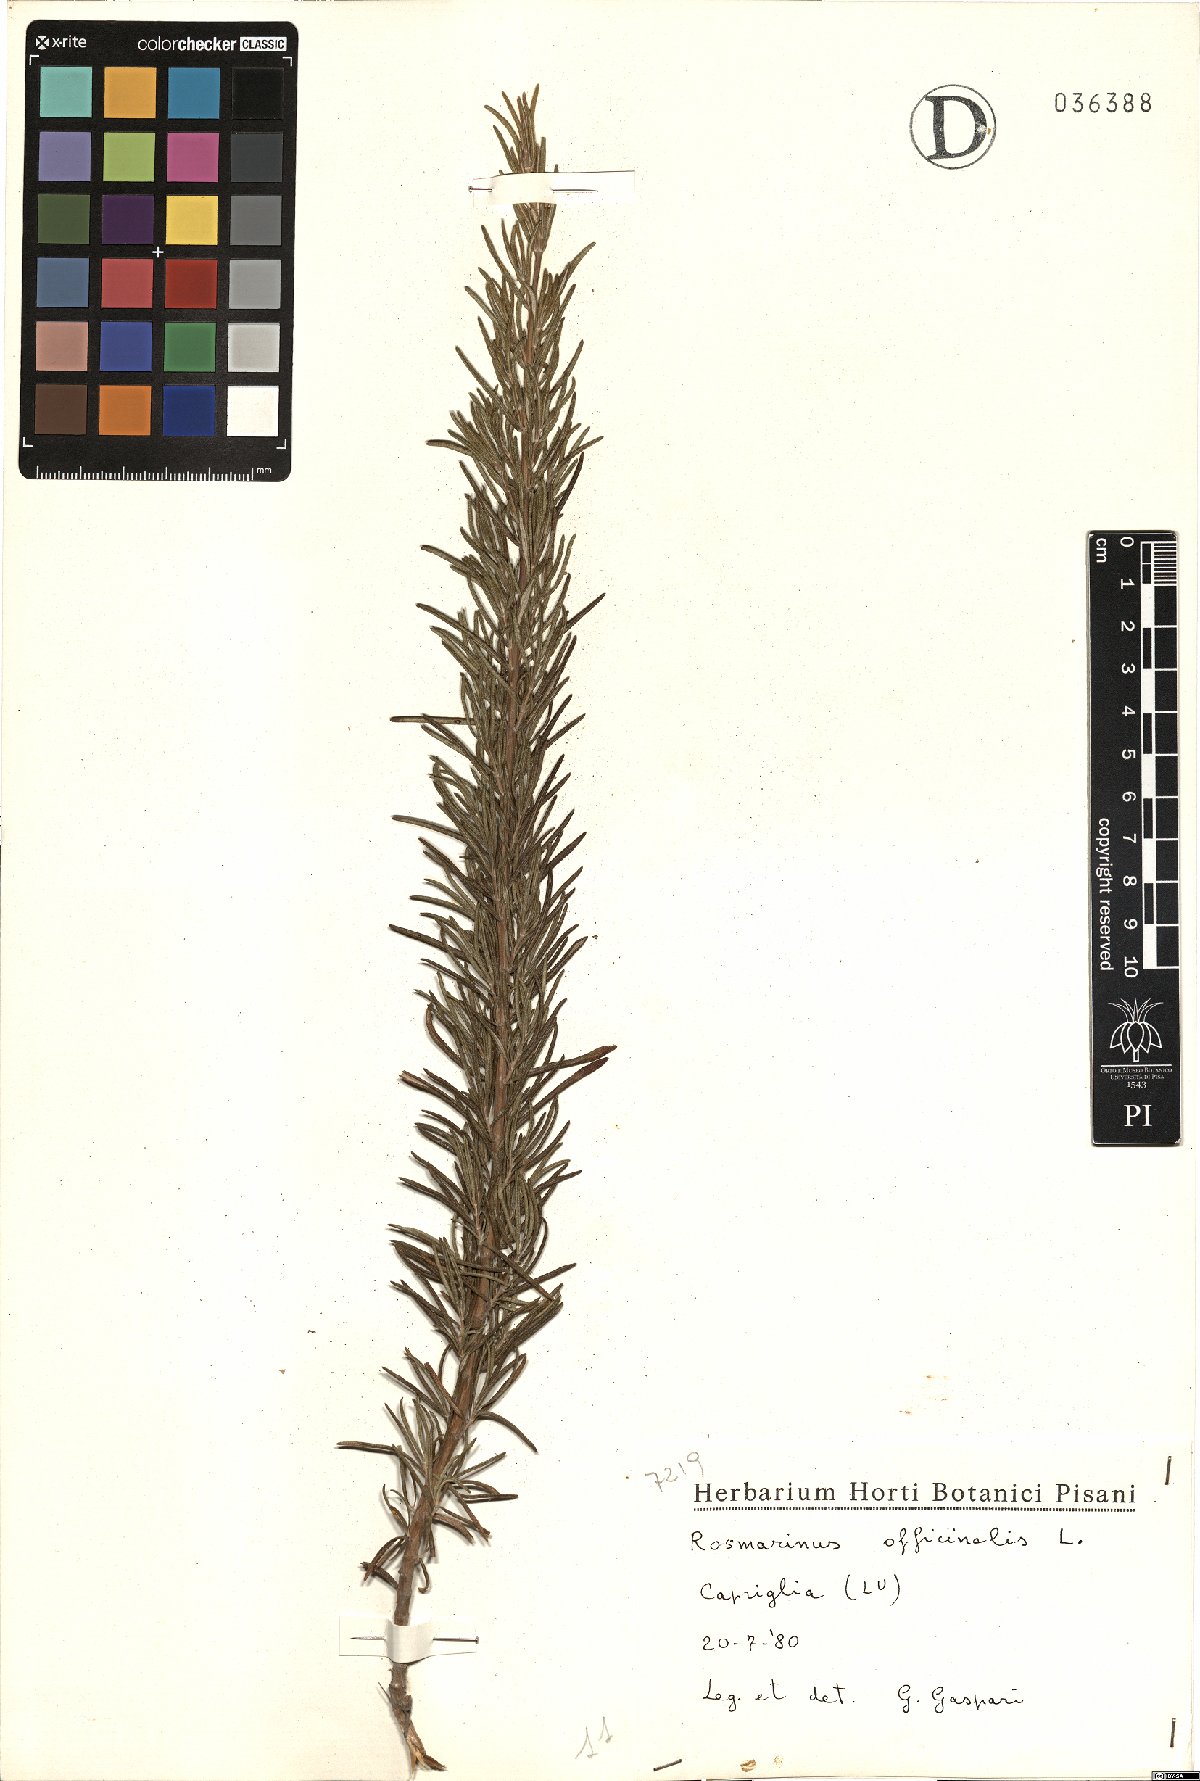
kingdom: Plantae
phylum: Tracheophyta
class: Magnoliopsida
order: Lamiales
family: Lamiaceae
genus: Salvia
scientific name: Salvia rosmarinus
